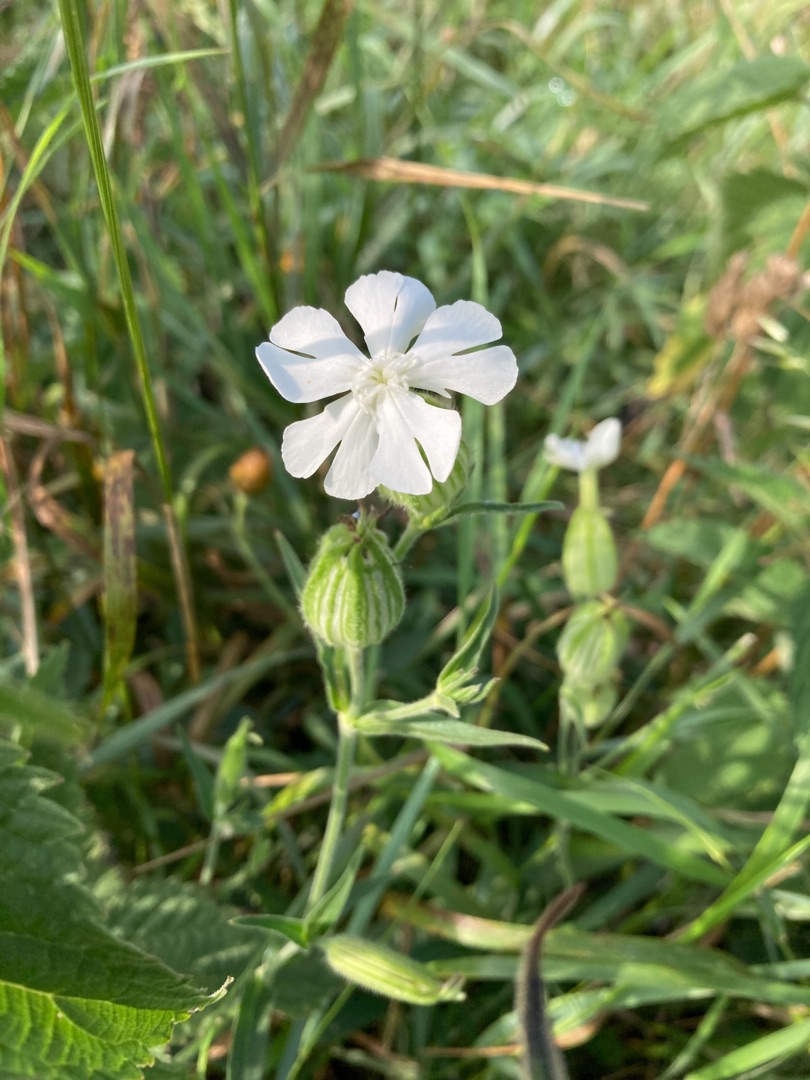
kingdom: Plantae
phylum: Tracheophyta
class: Magnoliopsida
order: Caryophyllales
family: Caryophyllaceae
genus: Silene
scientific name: Silene latifolia
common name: Aftenpragtstjerne
